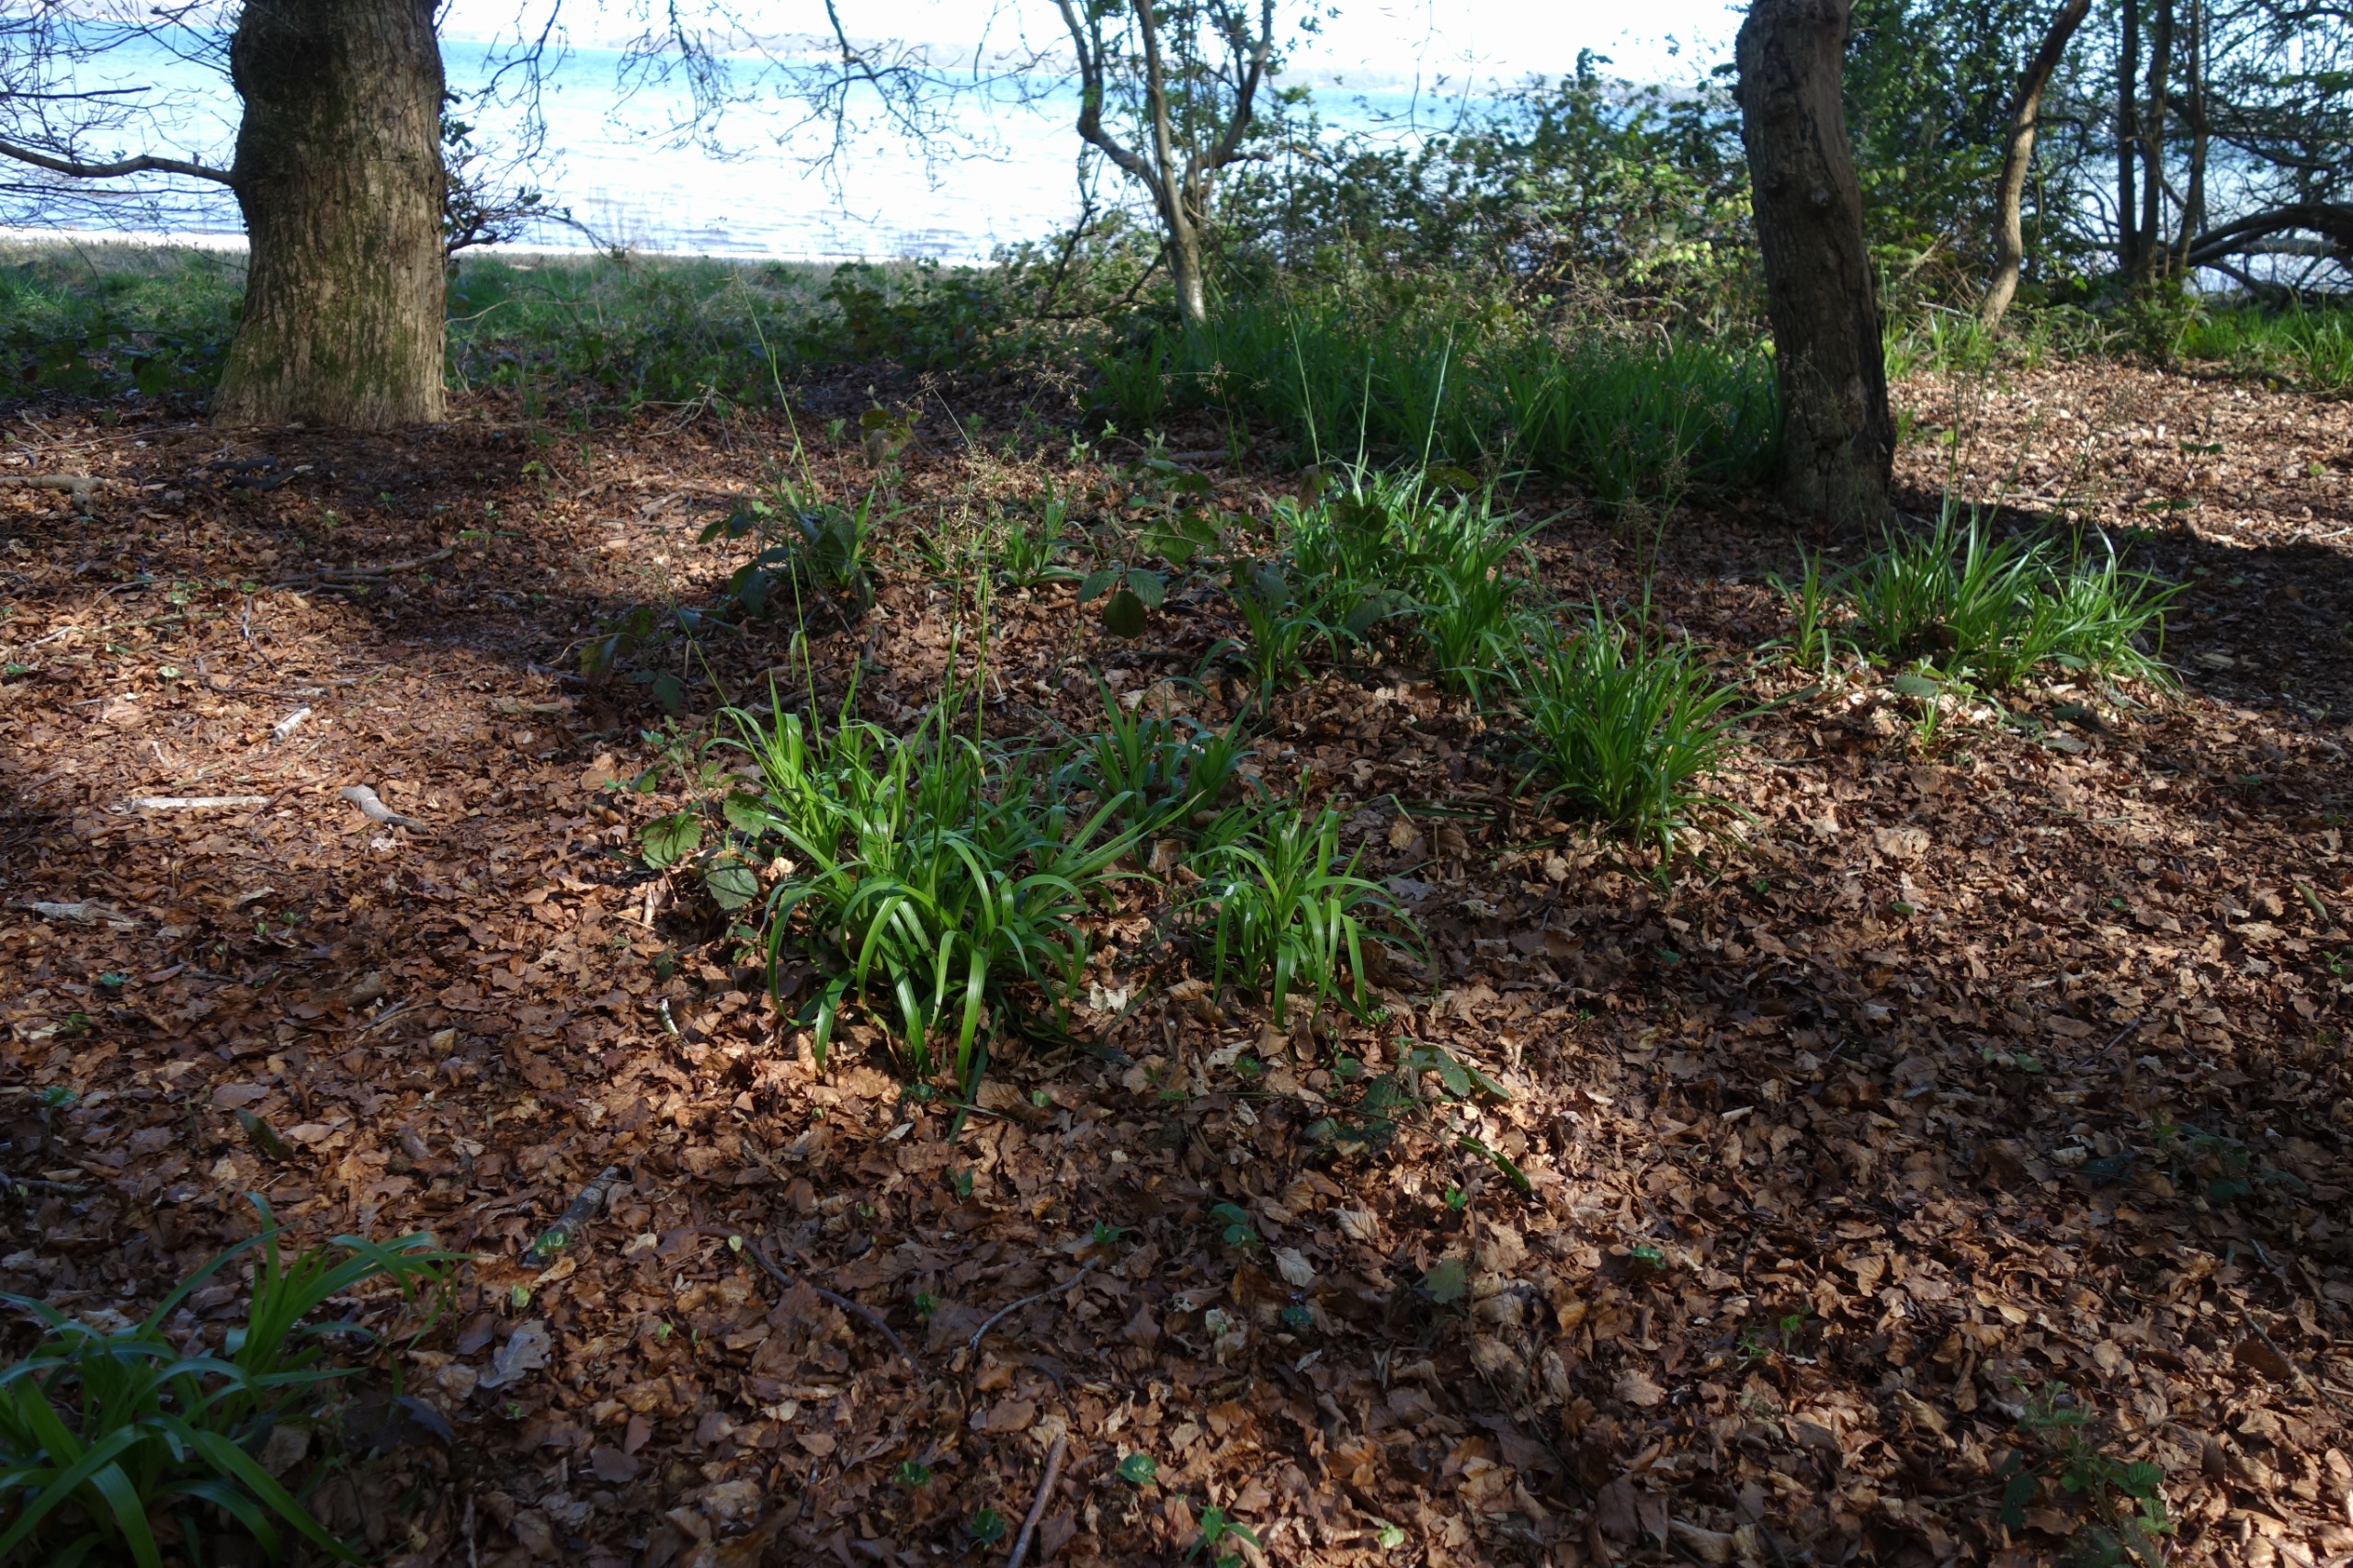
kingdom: Plantae
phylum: Tracheophyta
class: Liliopsida
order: Poales
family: Juncaceae
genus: Luzula
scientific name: Luzula sylvatica
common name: Stor frytle
